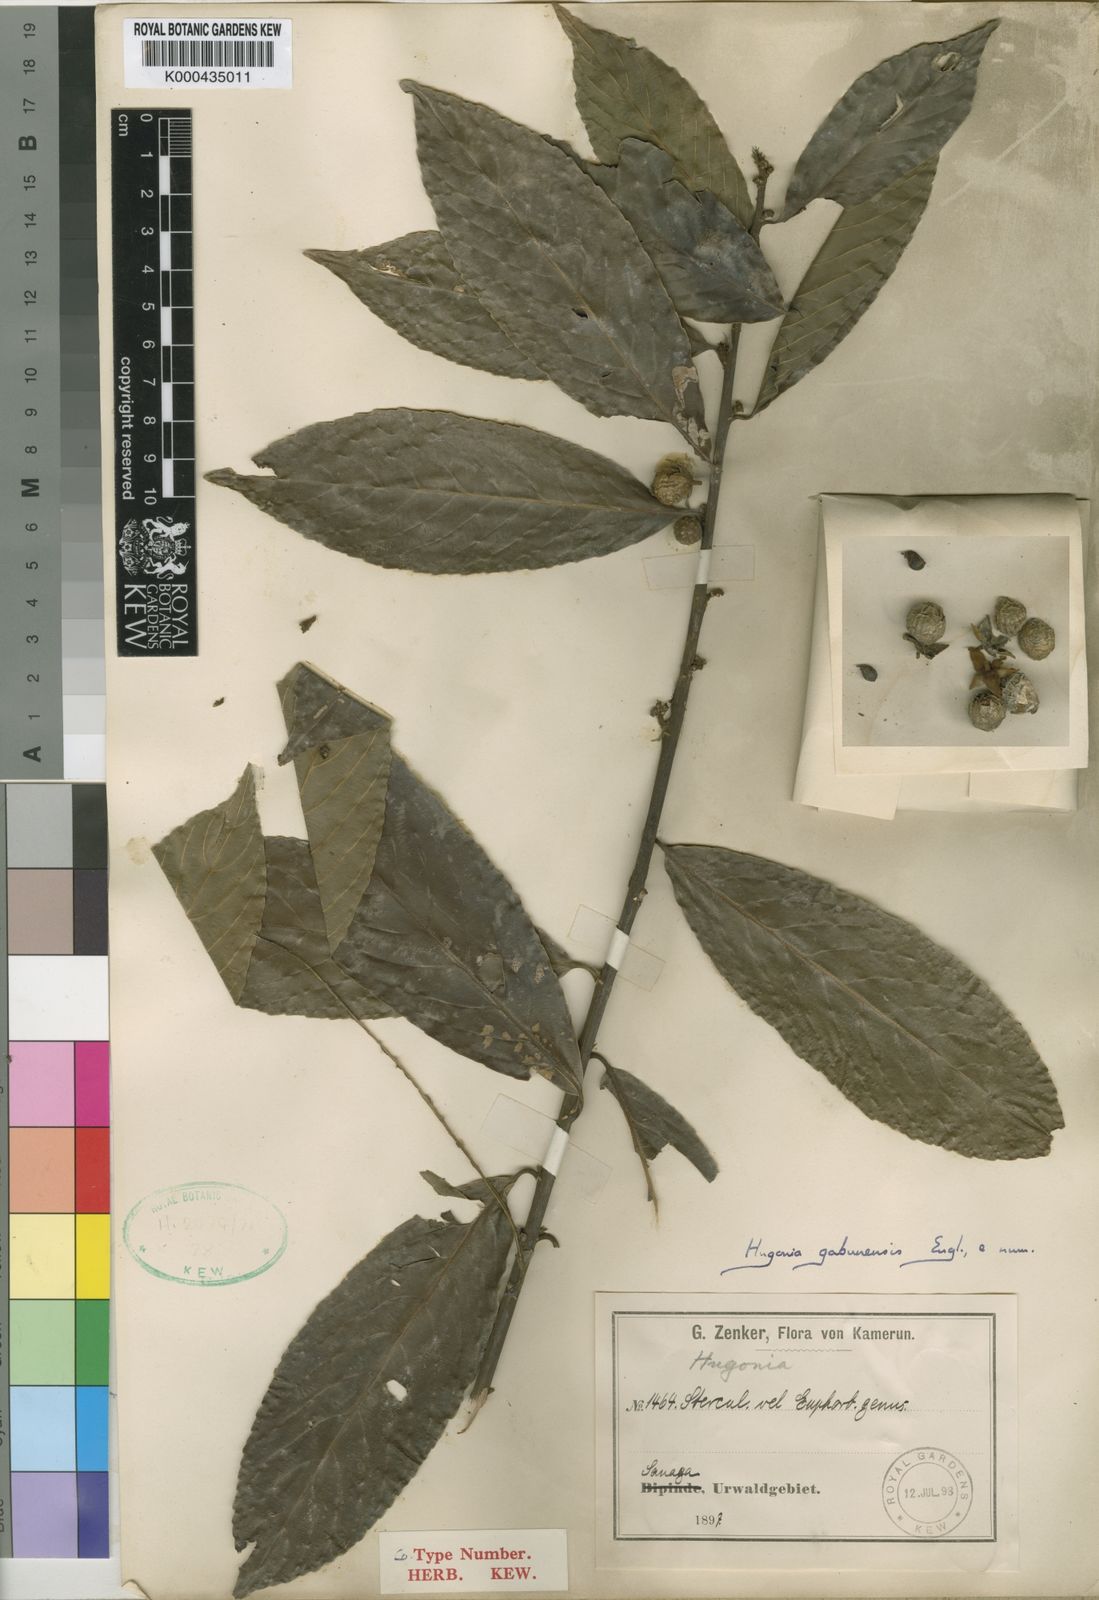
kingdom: Plantae
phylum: Tracheophyta
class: Magnoliopsida
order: Malpighiales
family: Linaceae
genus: Hugonia
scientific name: Hugonia gabunensis
